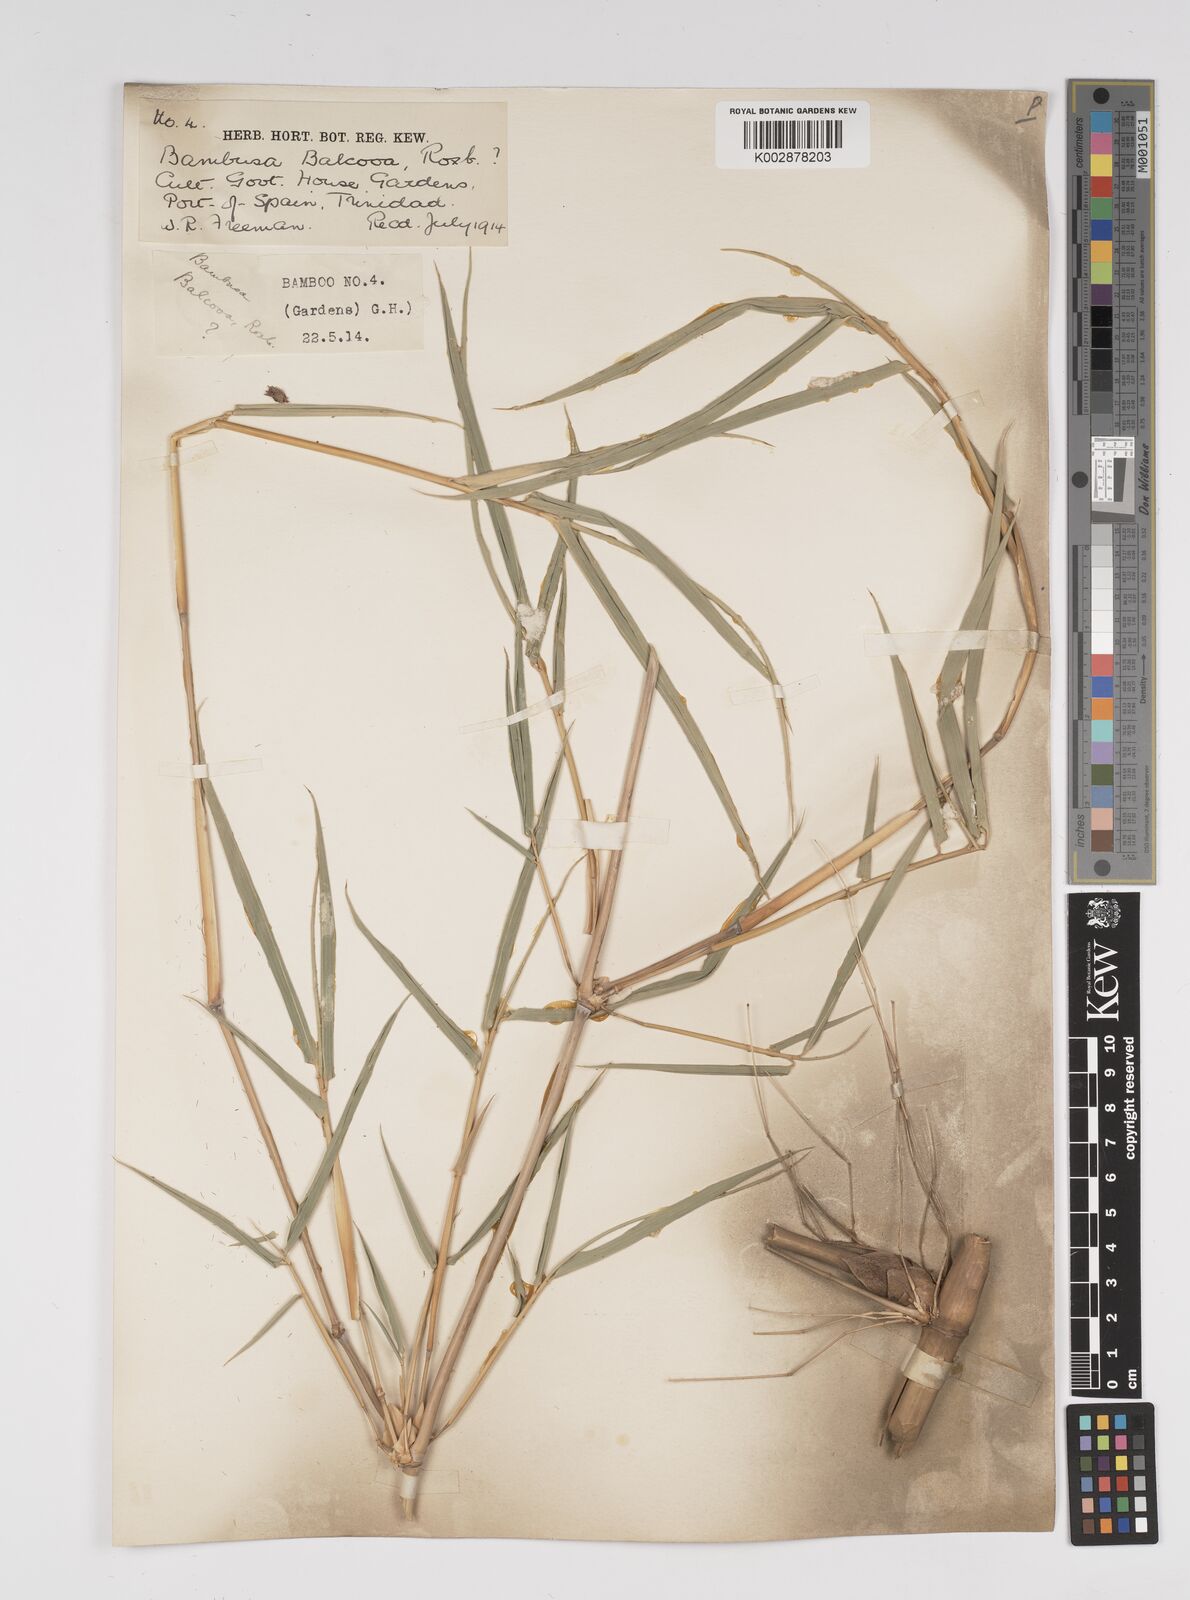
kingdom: Plantae
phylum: Tracheophyta
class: Liliopsida
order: Poales
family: Poaceae
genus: Bambusa
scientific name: Bambusa balcooa
